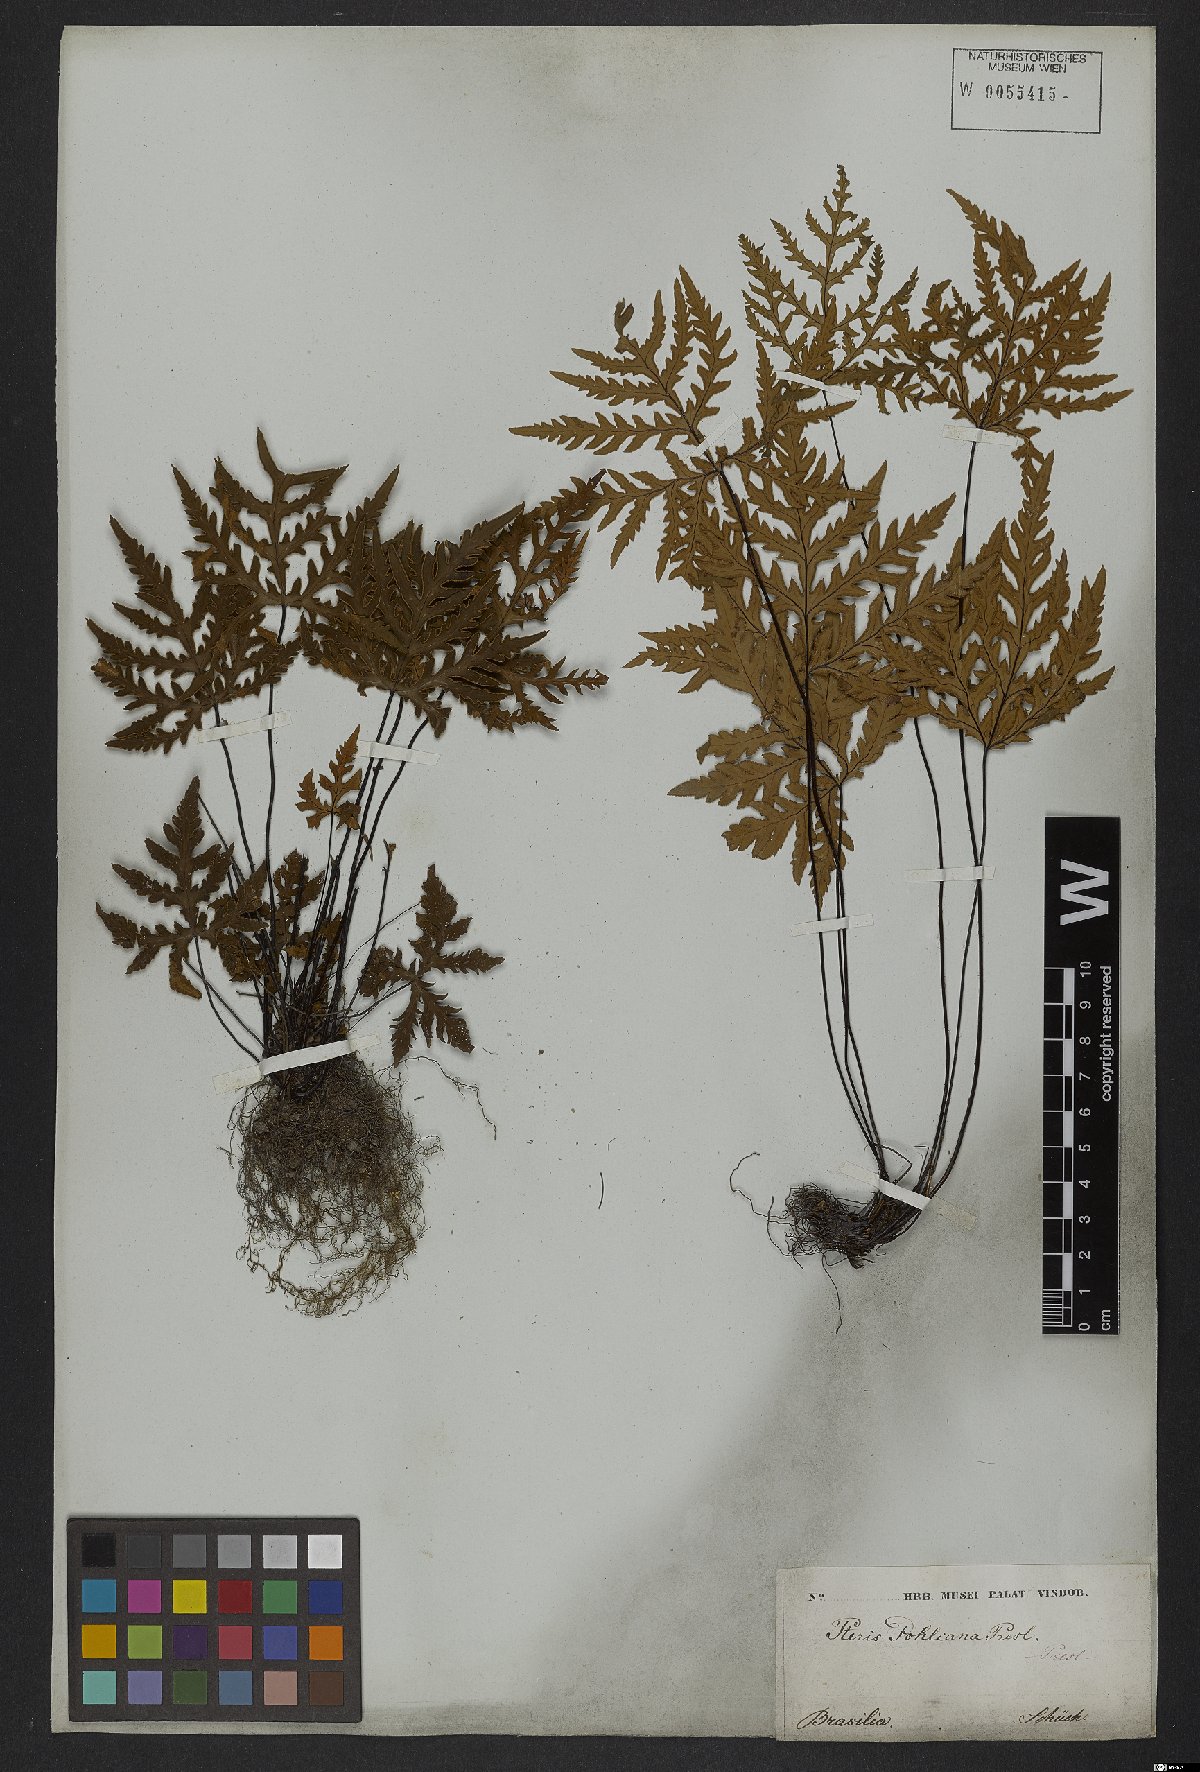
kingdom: Plantae
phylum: Tracheophyta
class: Polypodiopsida
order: Polypodiales
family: Pteridaceae
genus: Doryopteris
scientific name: Doryopteris concolor
